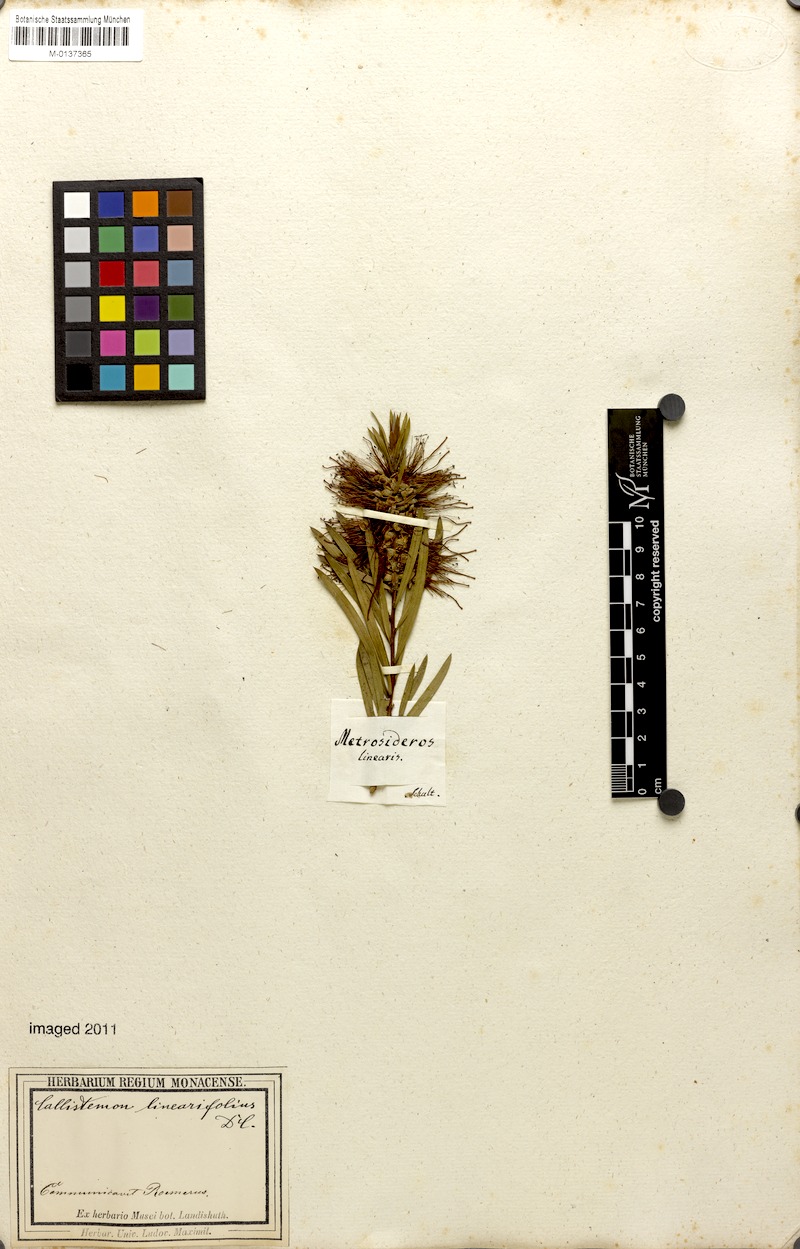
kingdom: Plantae
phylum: Tracheophyta
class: Magnoliopsida
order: Myrtales
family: Myrtaceae
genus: Callistemon
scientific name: Callistemon linearifolius
